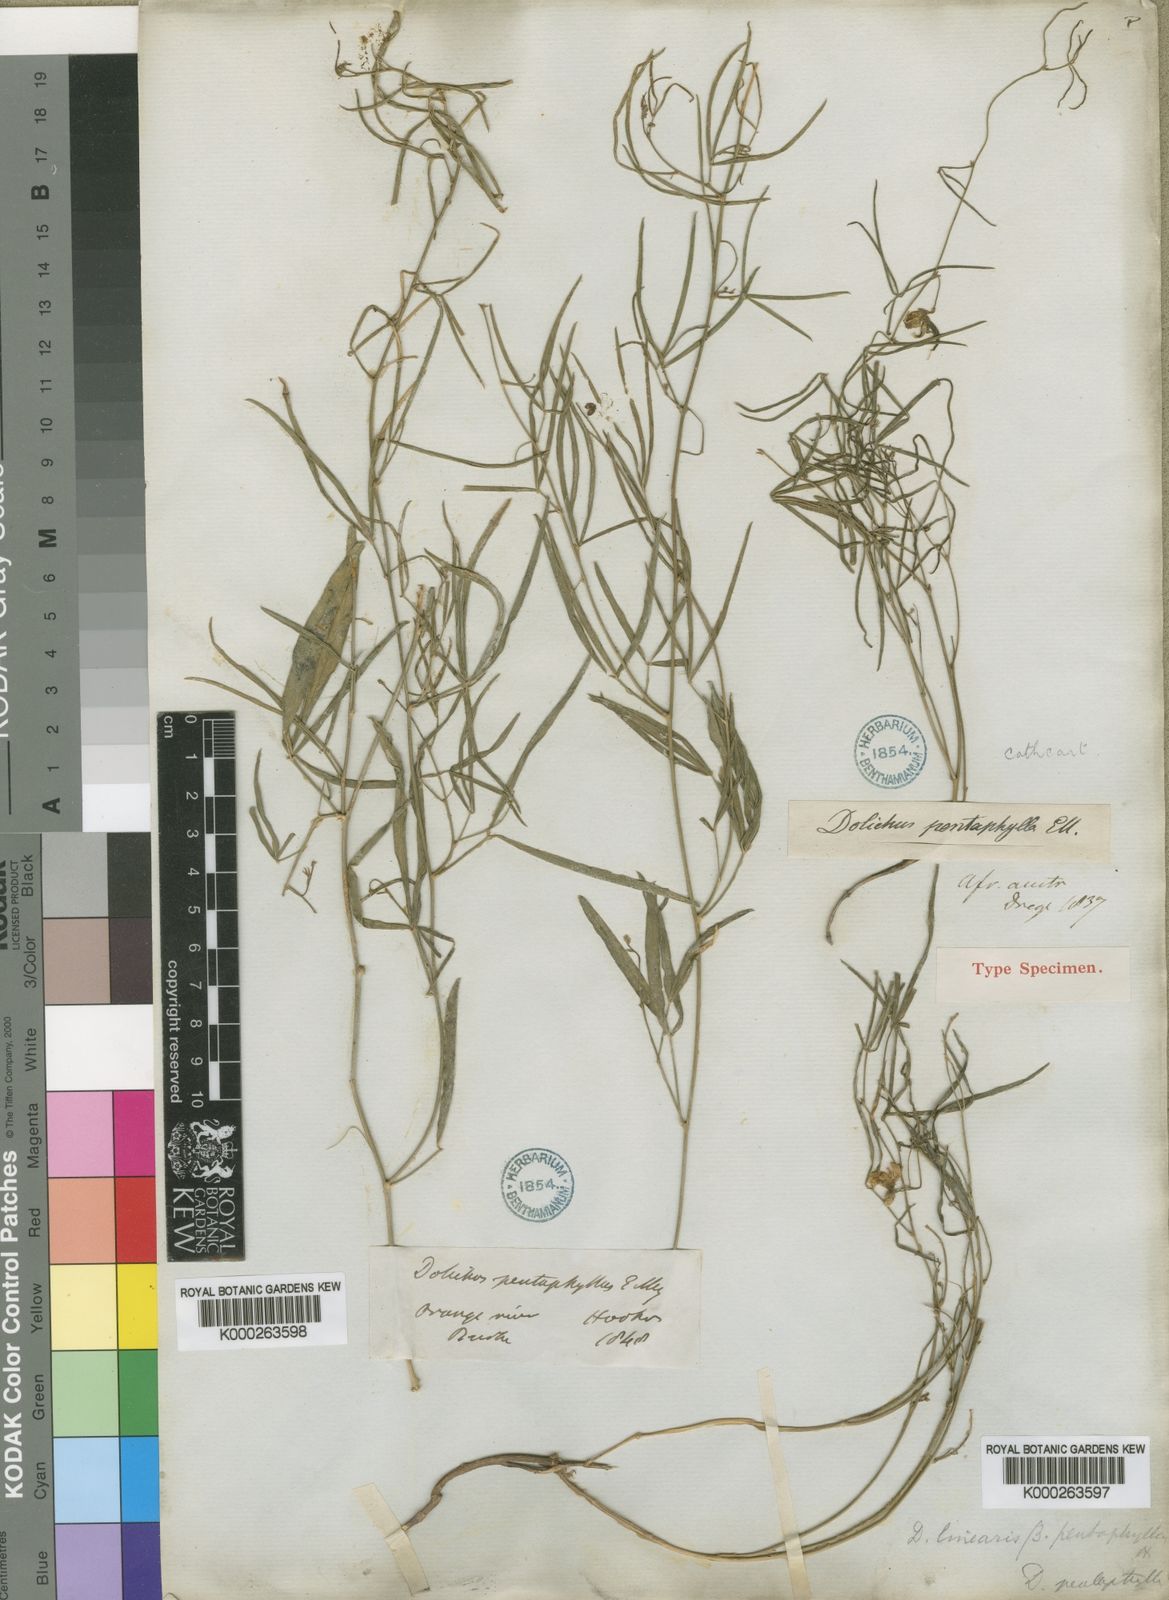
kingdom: Plantae
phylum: Tracheophyta
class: Magnoliopsida
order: Fabales
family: Fabaceae
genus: Dolichos
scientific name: Dolichos linearis
